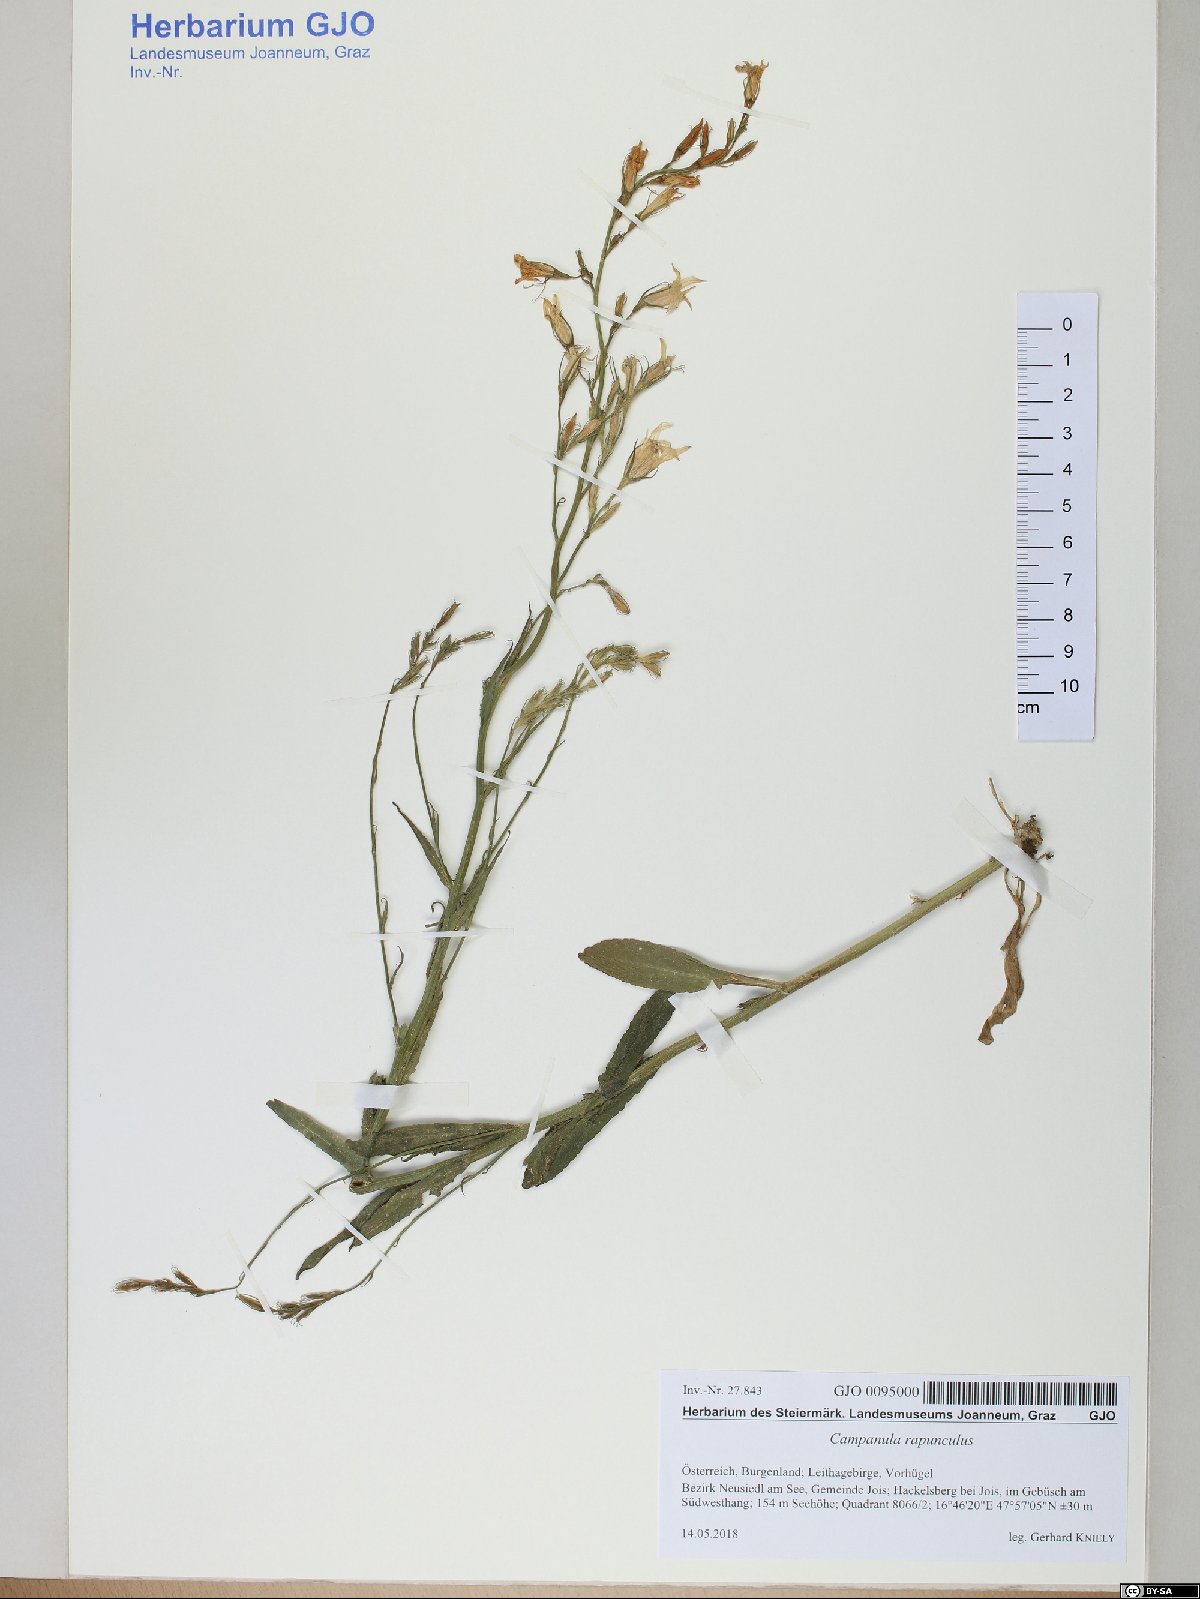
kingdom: Plantae
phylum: Tracheophyta
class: Magnoliopsida
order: Asterales
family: Campanulaceae
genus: Campanula
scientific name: Campanula rapunculus
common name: Rampion bellflower
